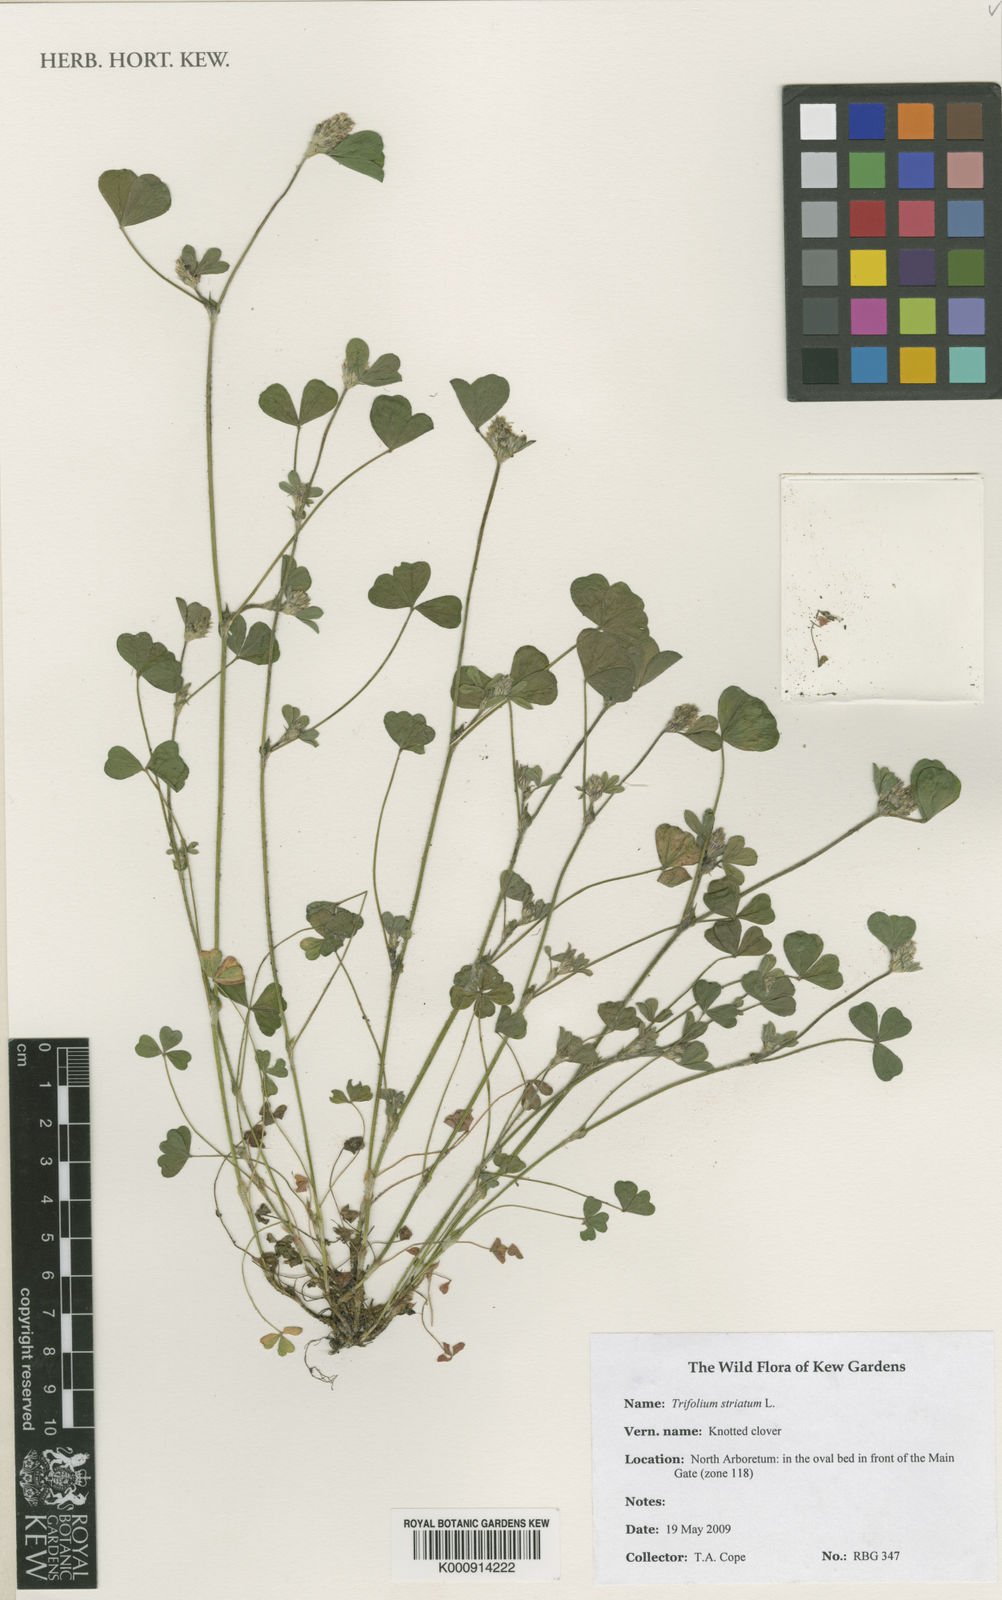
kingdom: Plantae
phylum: Tracheophyta
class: Magnoliopsida
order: Fabales
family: Fabaceae
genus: Trifolium
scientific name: Trifolium striatum
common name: Knotted clover
